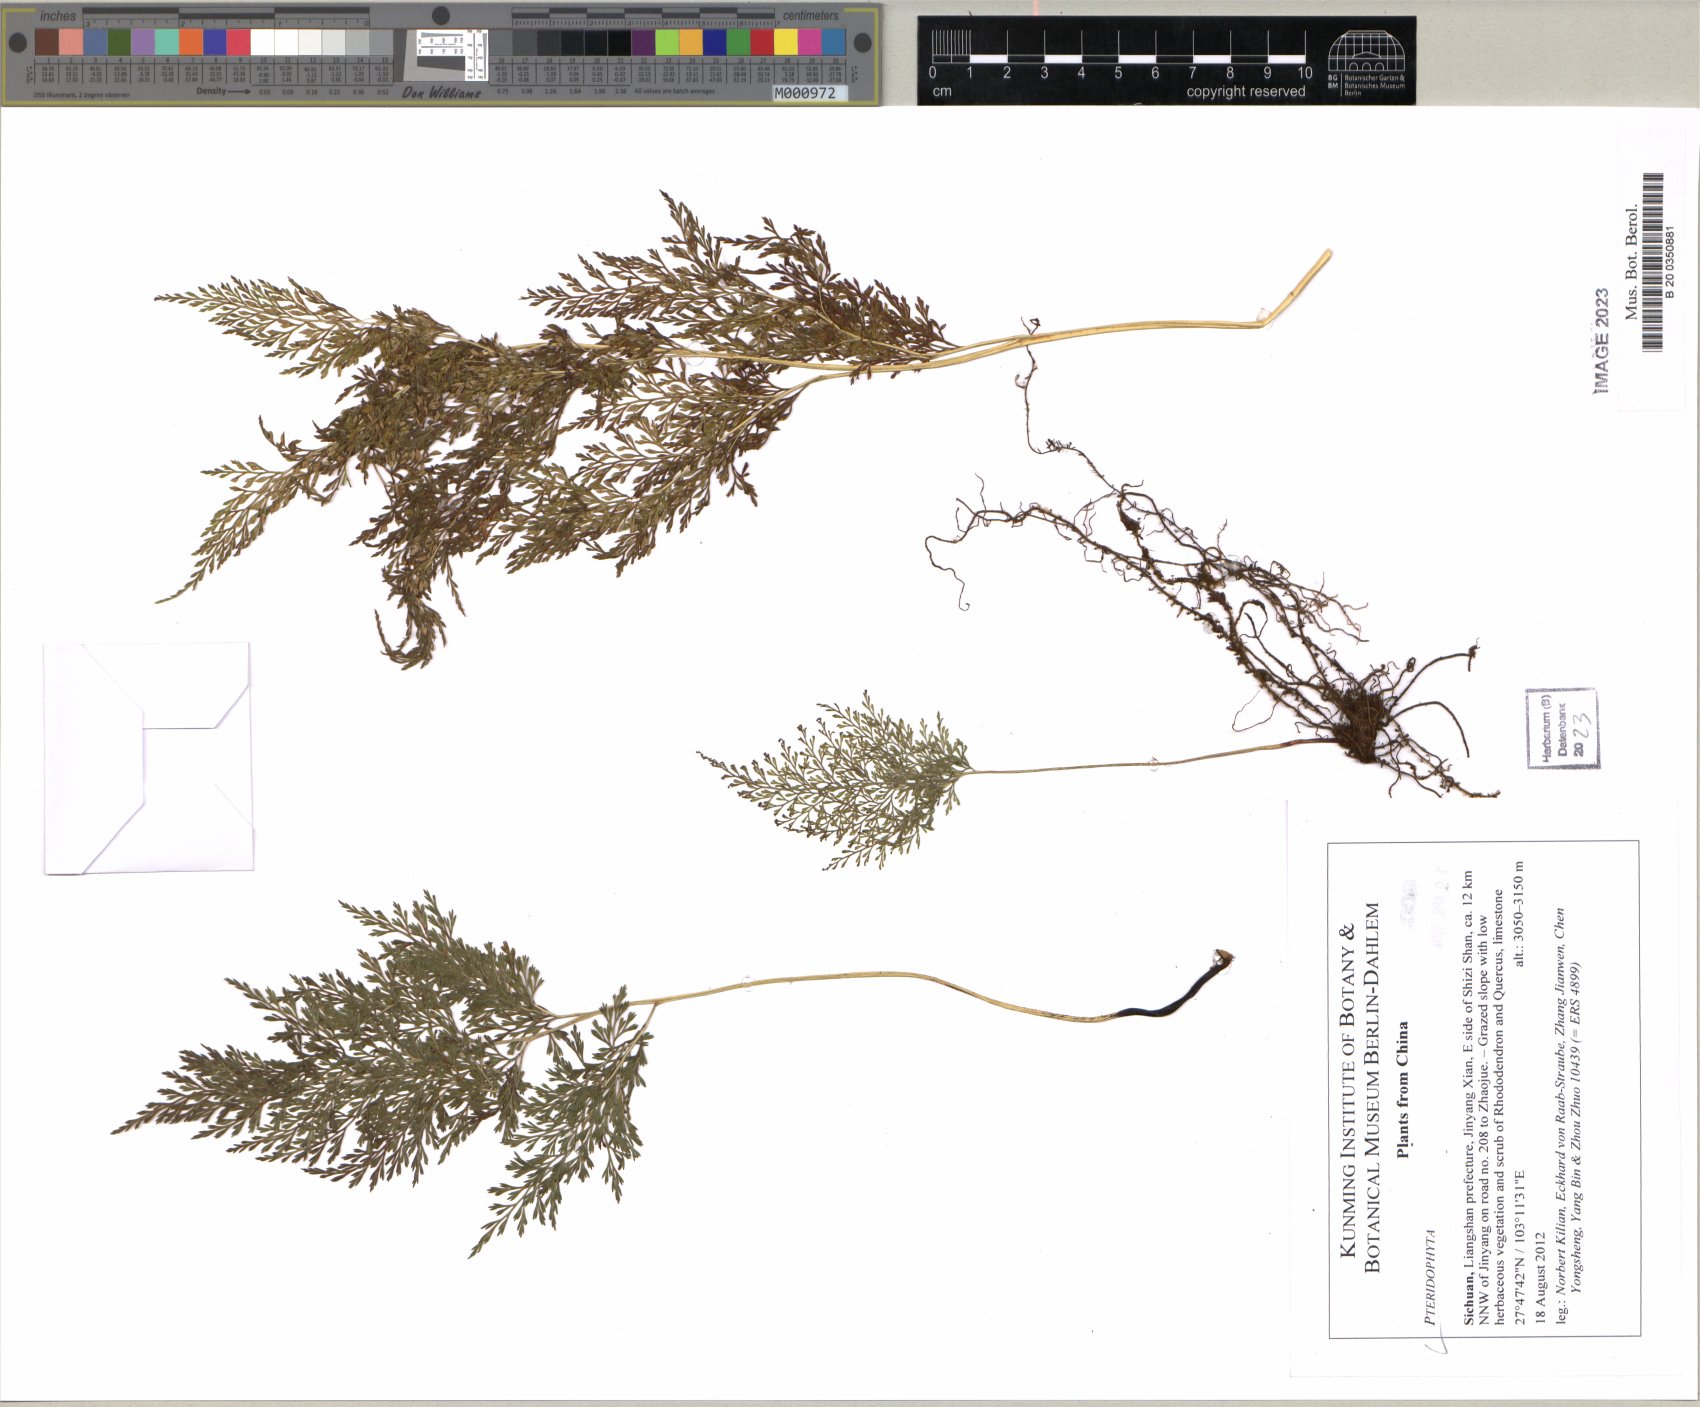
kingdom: Plantae
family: Pteridophyta
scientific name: Pteridophyta
